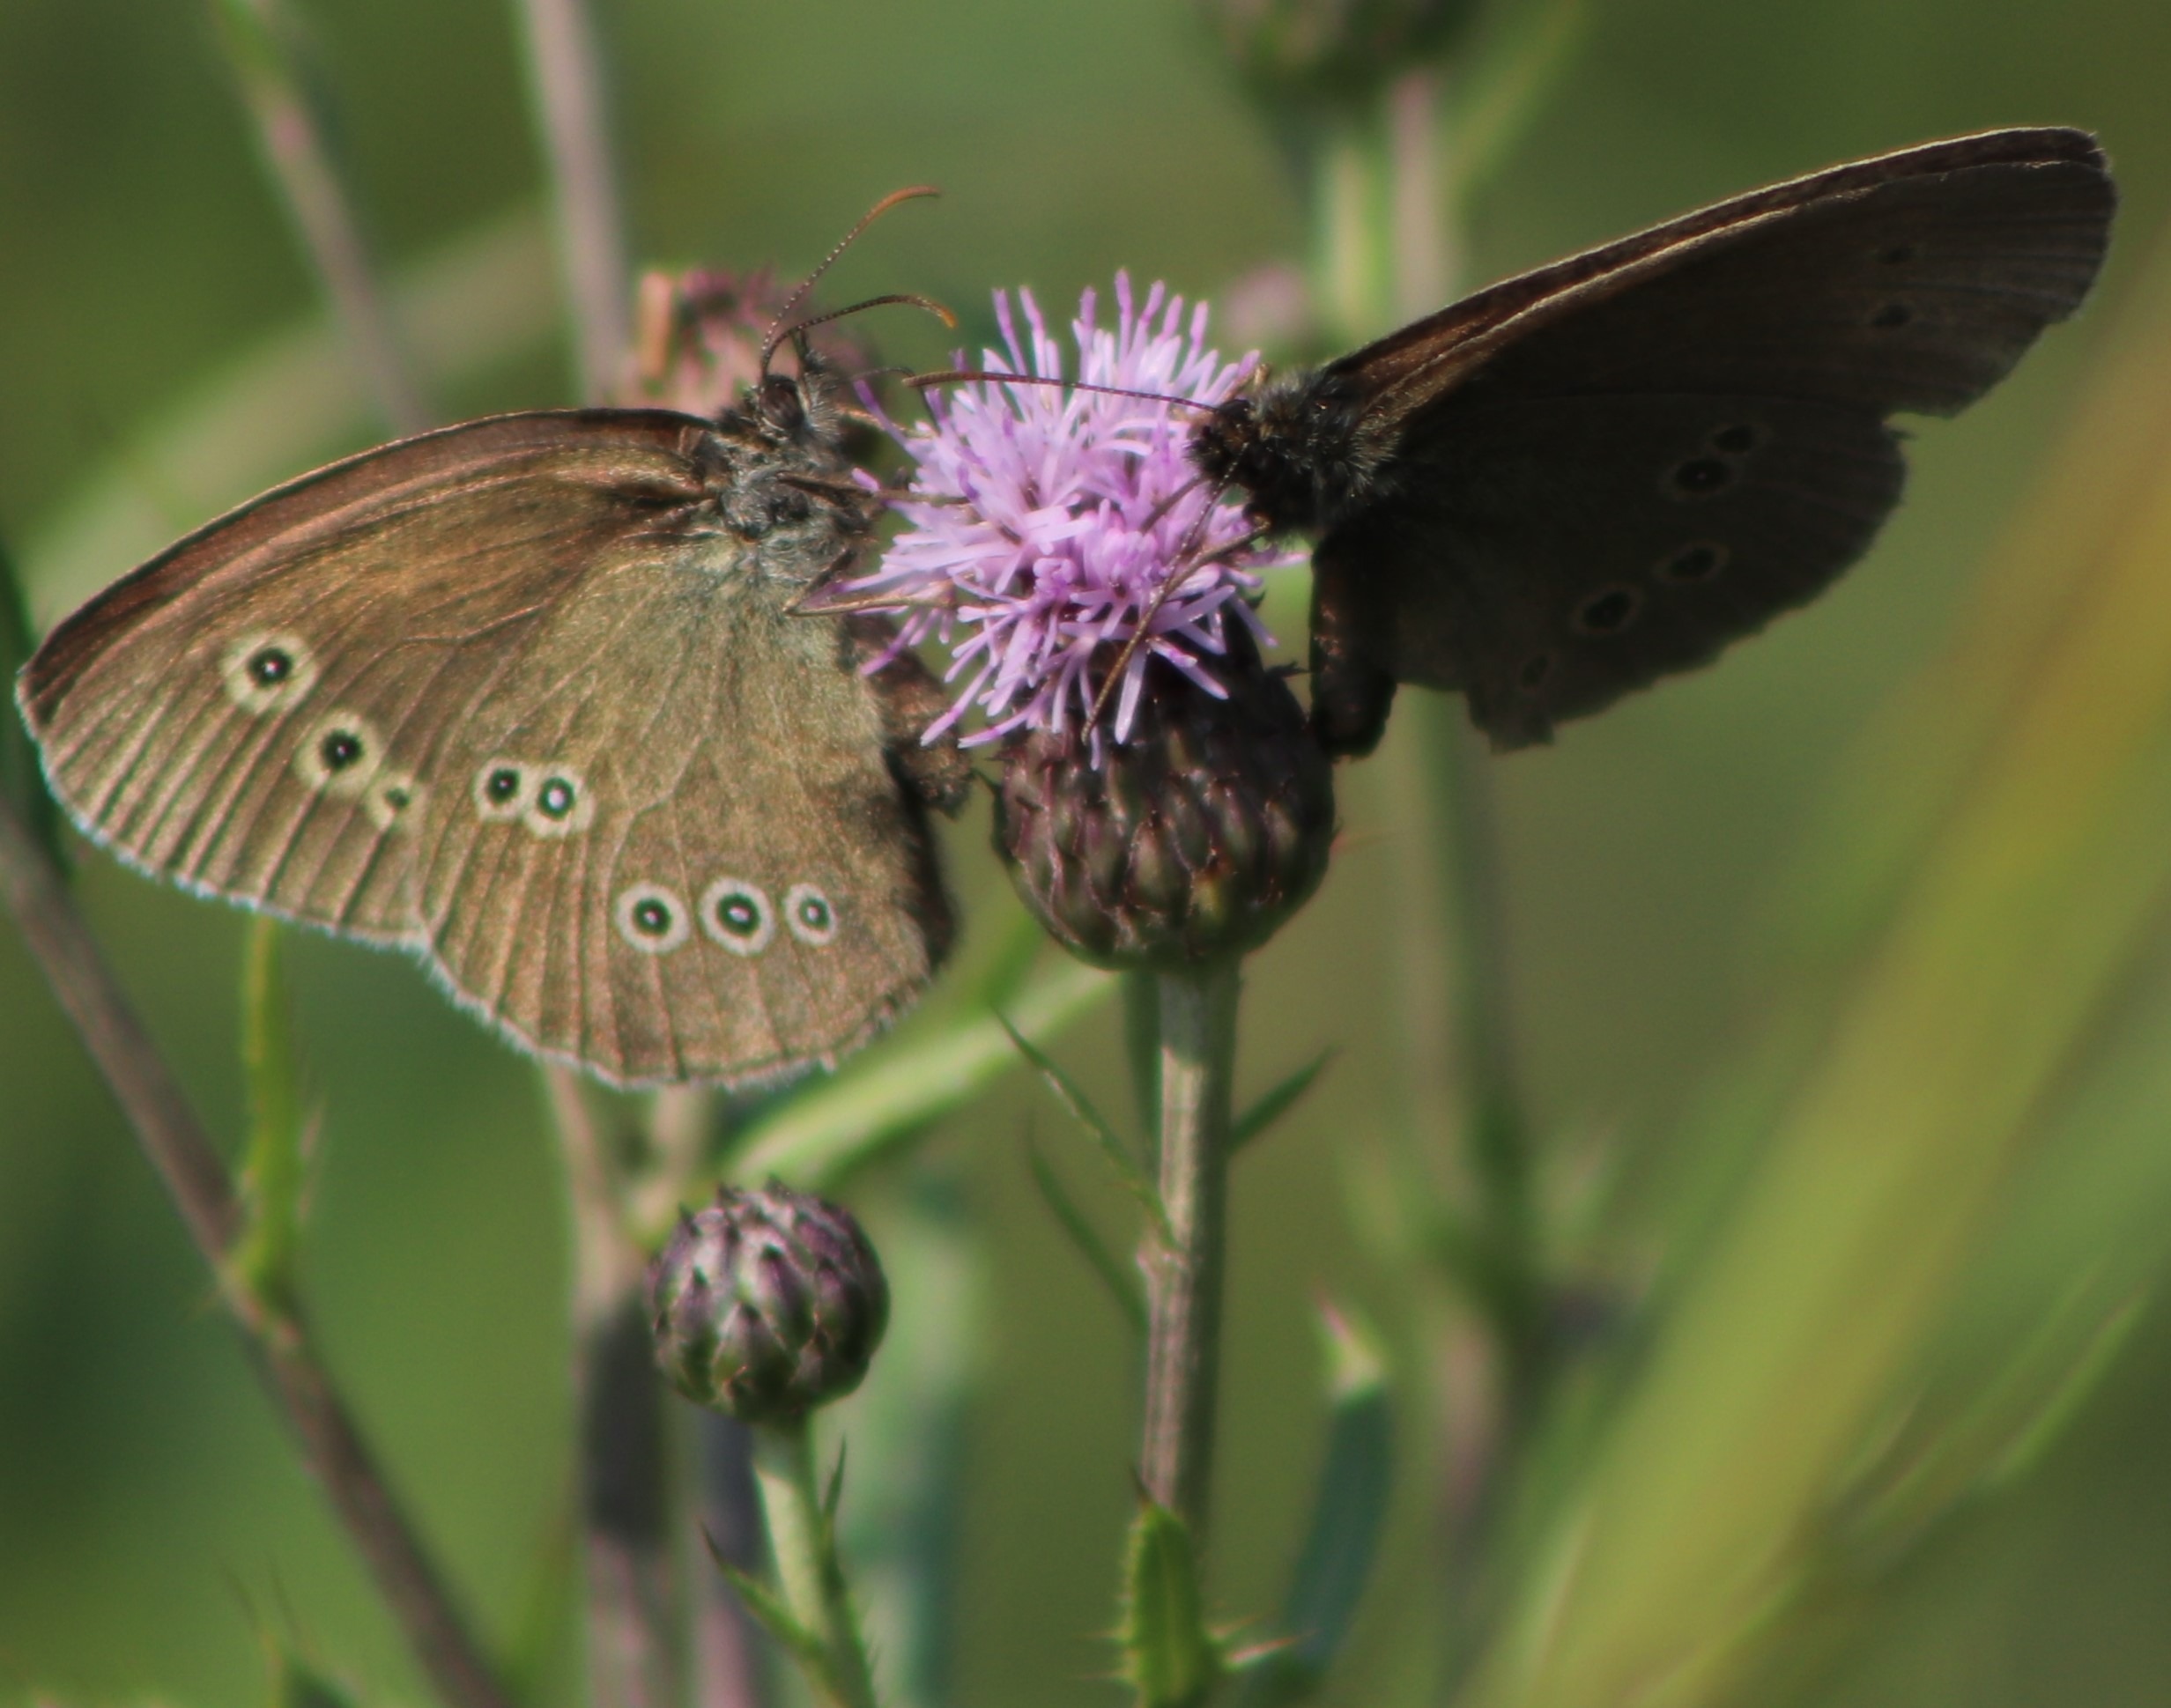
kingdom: Animalia
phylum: Arthropoda
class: Insecta
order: Lepidoptera
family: Nymphalidae
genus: Aphantopus
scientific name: Aphantopus hyperantus
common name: Engrandøje
